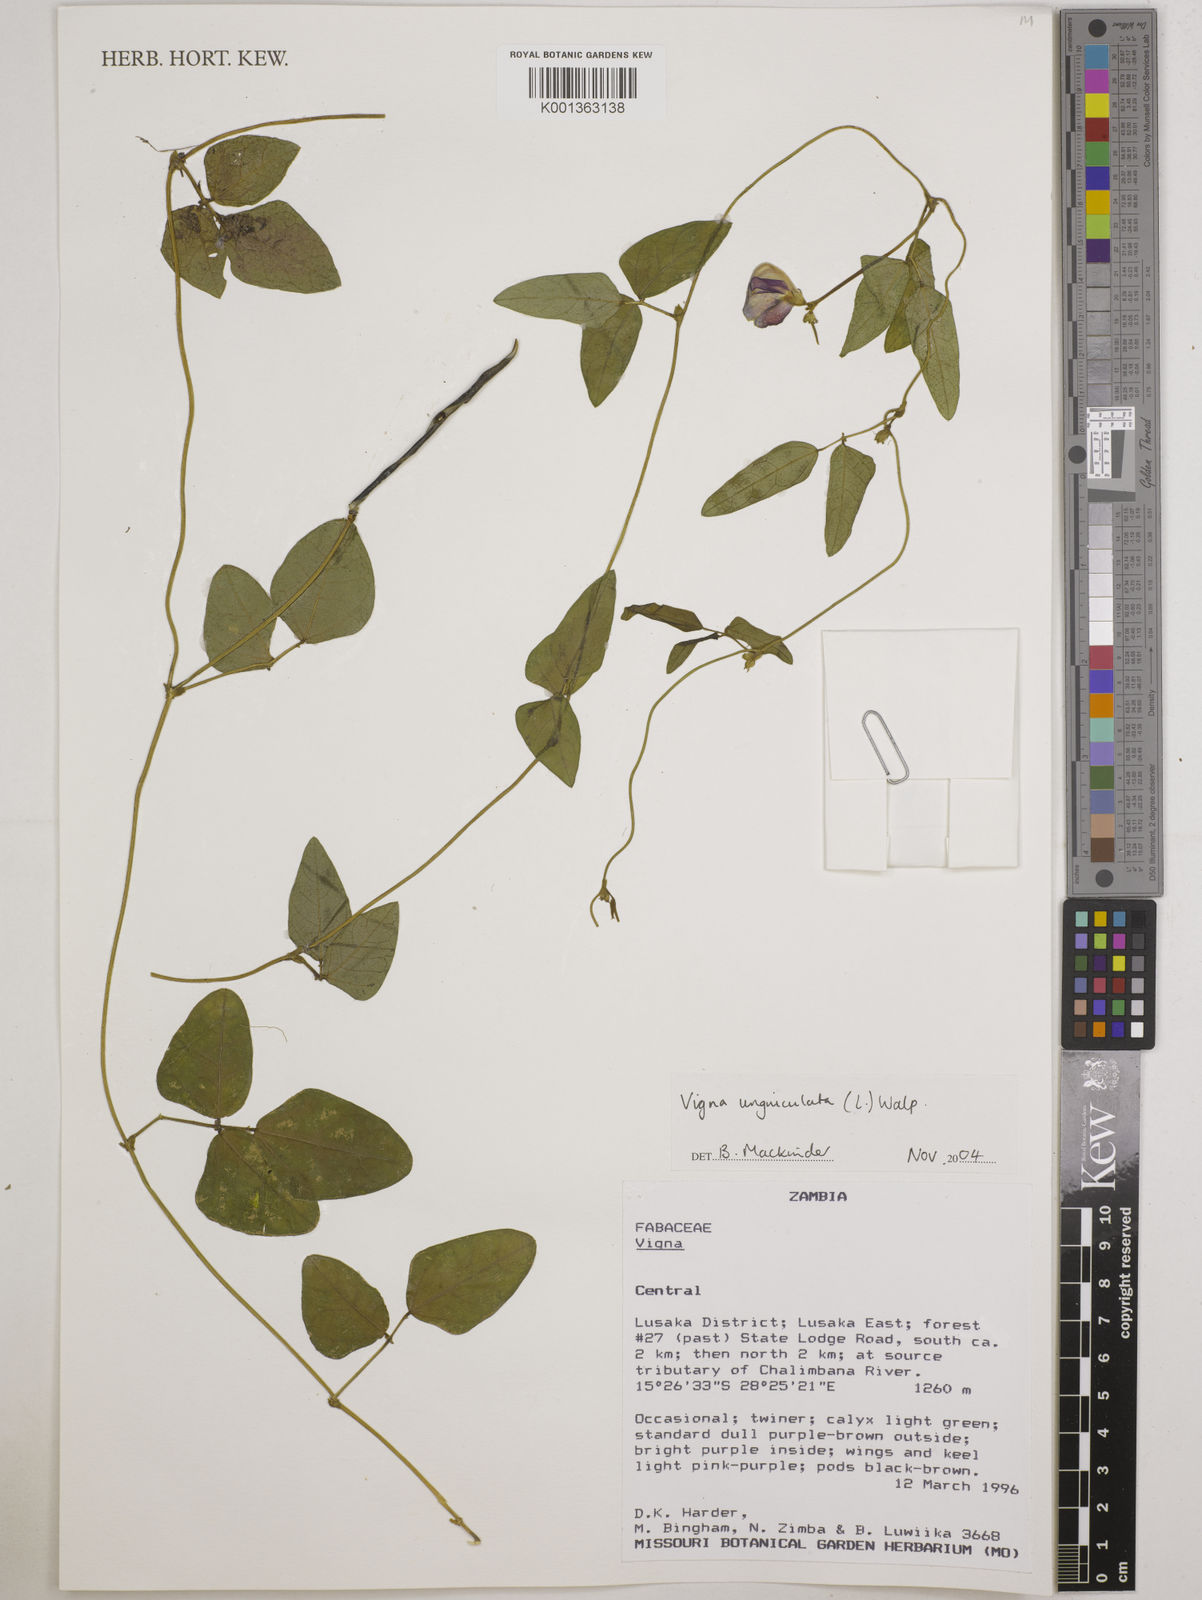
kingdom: Plantae
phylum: Tracheophyta
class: Magnoliopsida
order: Fabales
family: Fabaceae
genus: Vigna
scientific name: Vigna unguiculata
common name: Cowpea
